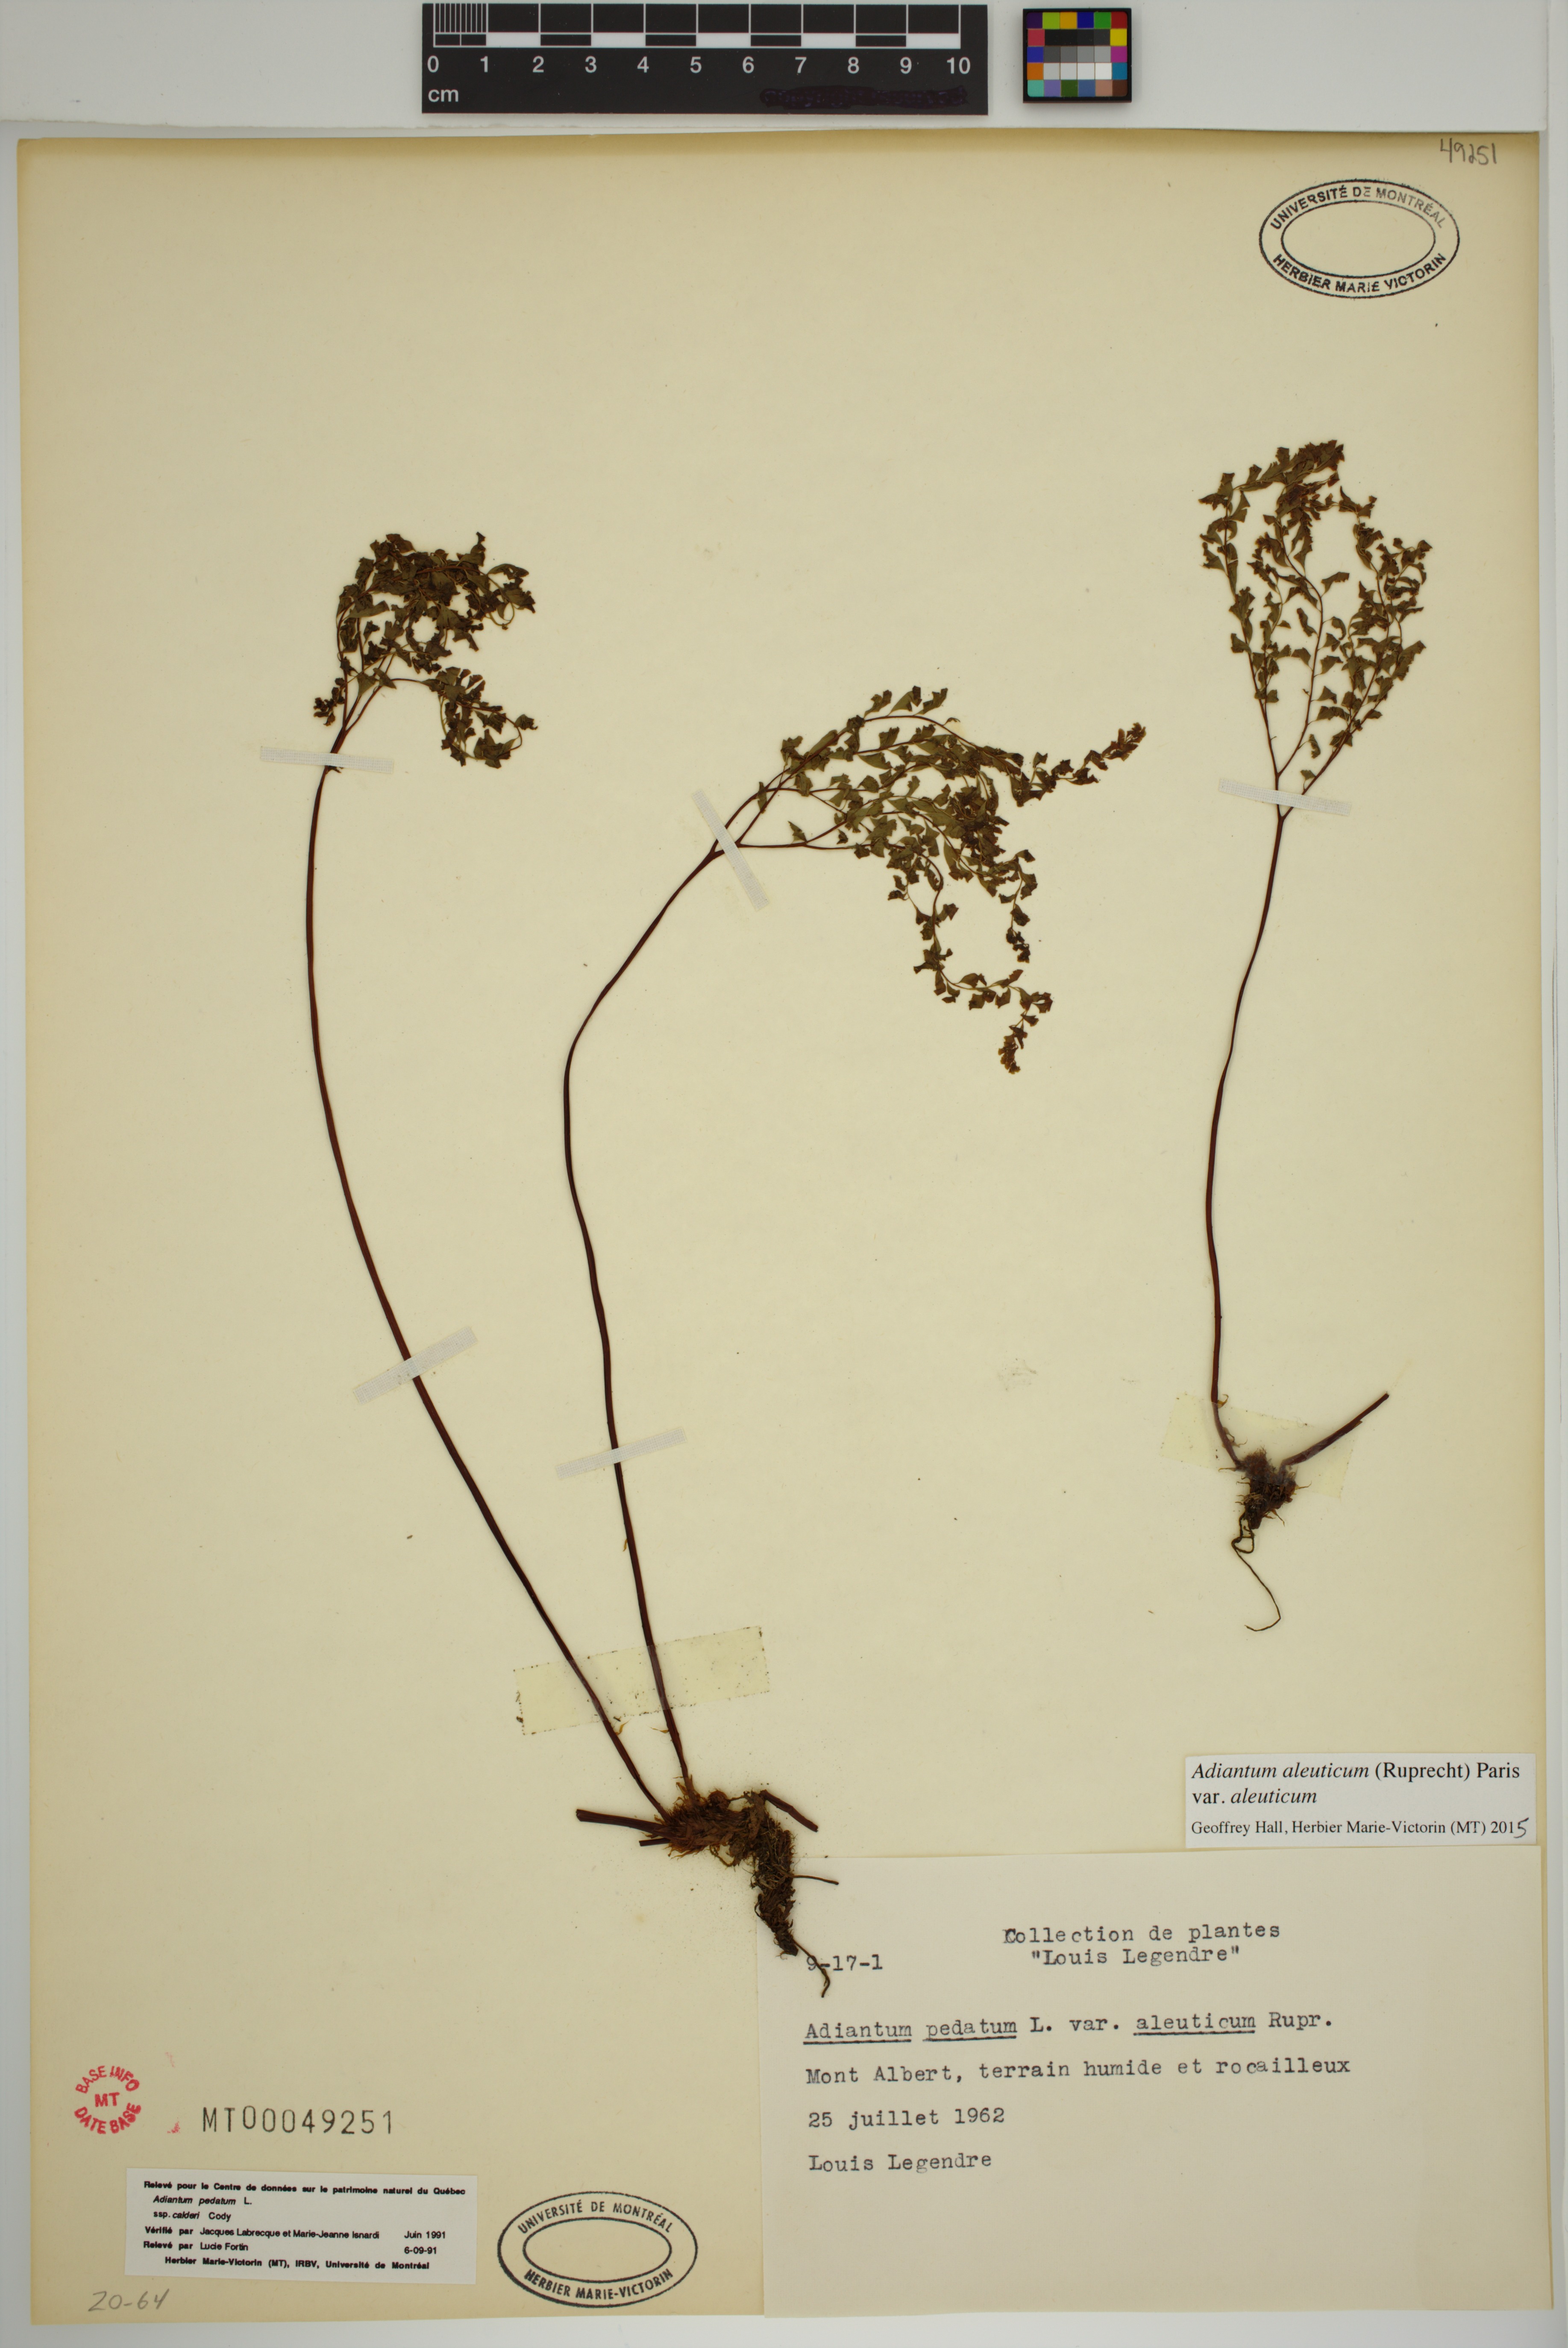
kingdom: Plantae
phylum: Tracheophyta
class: Polypodiopsida
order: Polypodiales
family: Pteridaceae
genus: Adiantum
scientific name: Adiantum aleuticum
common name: Aleutian maidenhair fern
